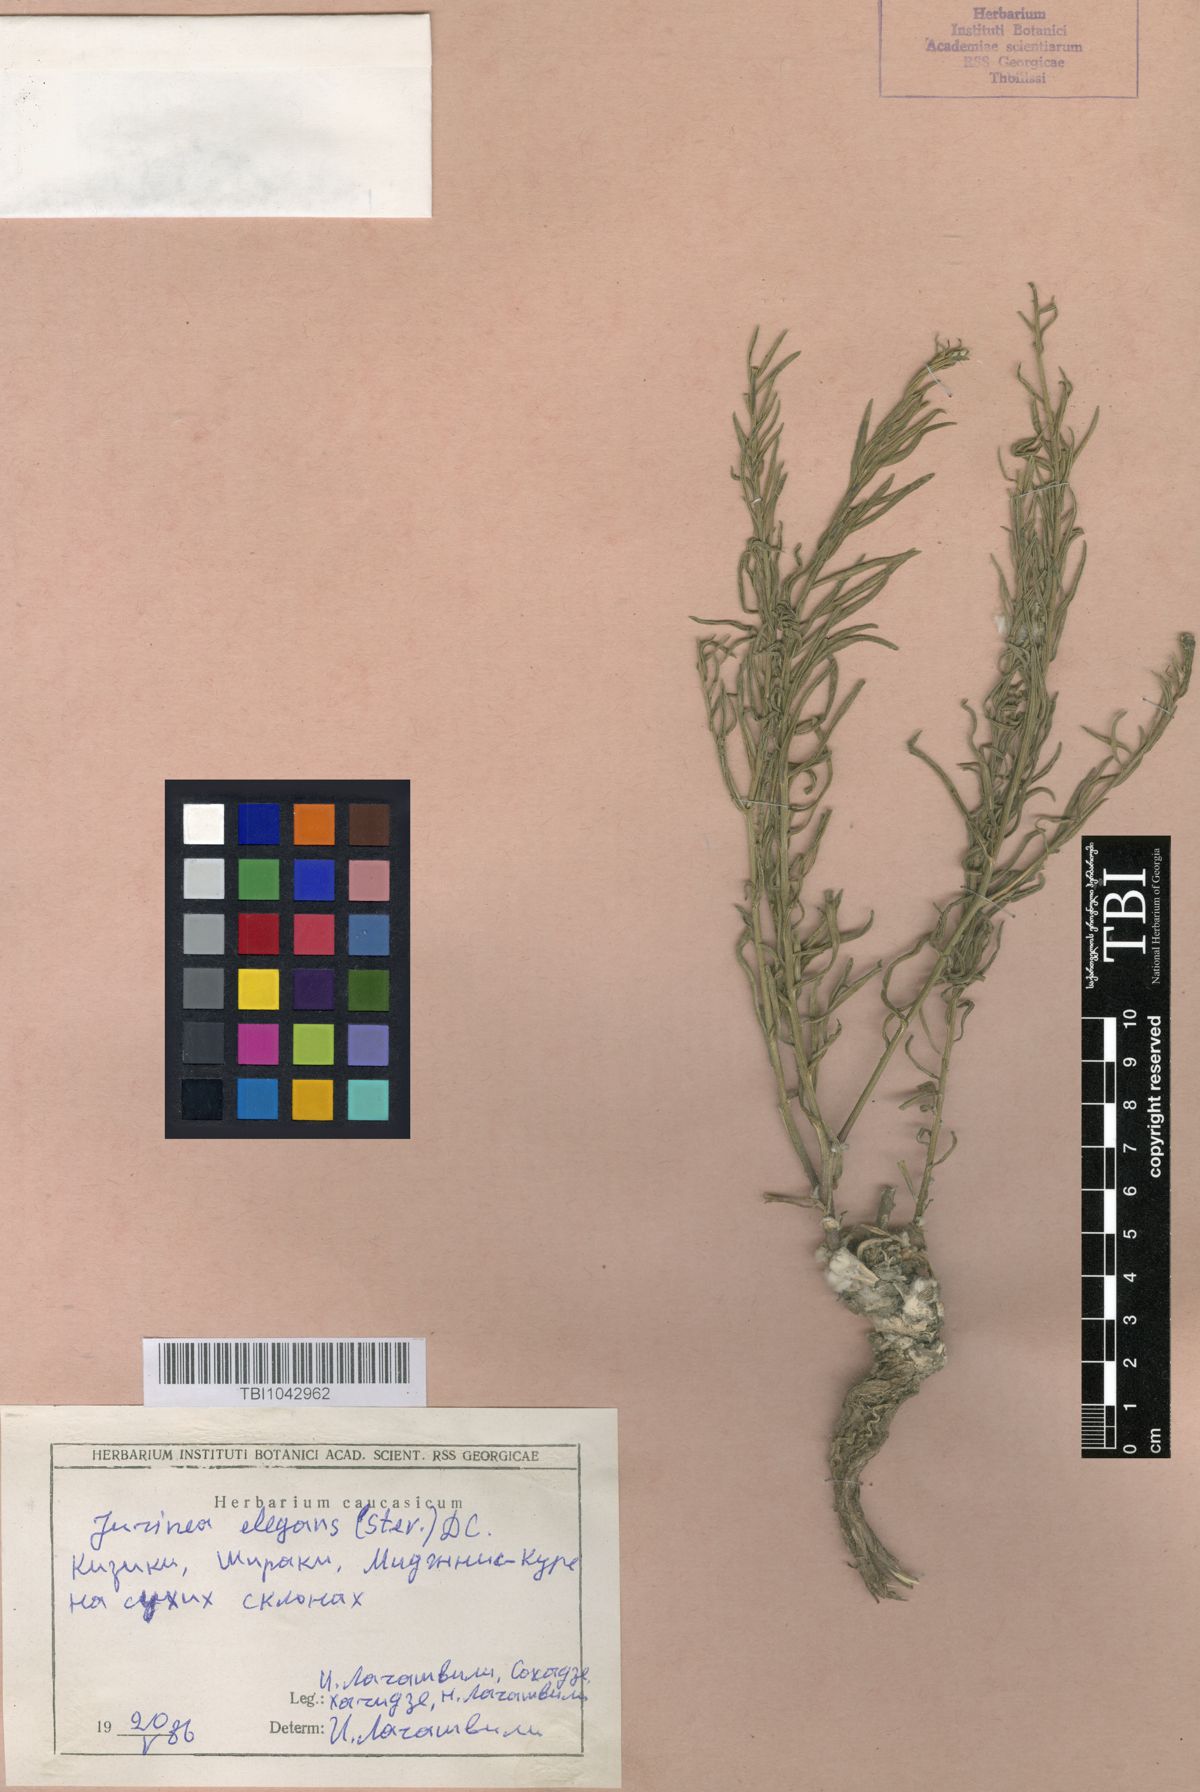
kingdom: Plantae
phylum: Tracheophyta
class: Magnoliopsida
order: Asterales
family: Asteraceae
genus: Jurinea
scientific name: Jurinea elegans
